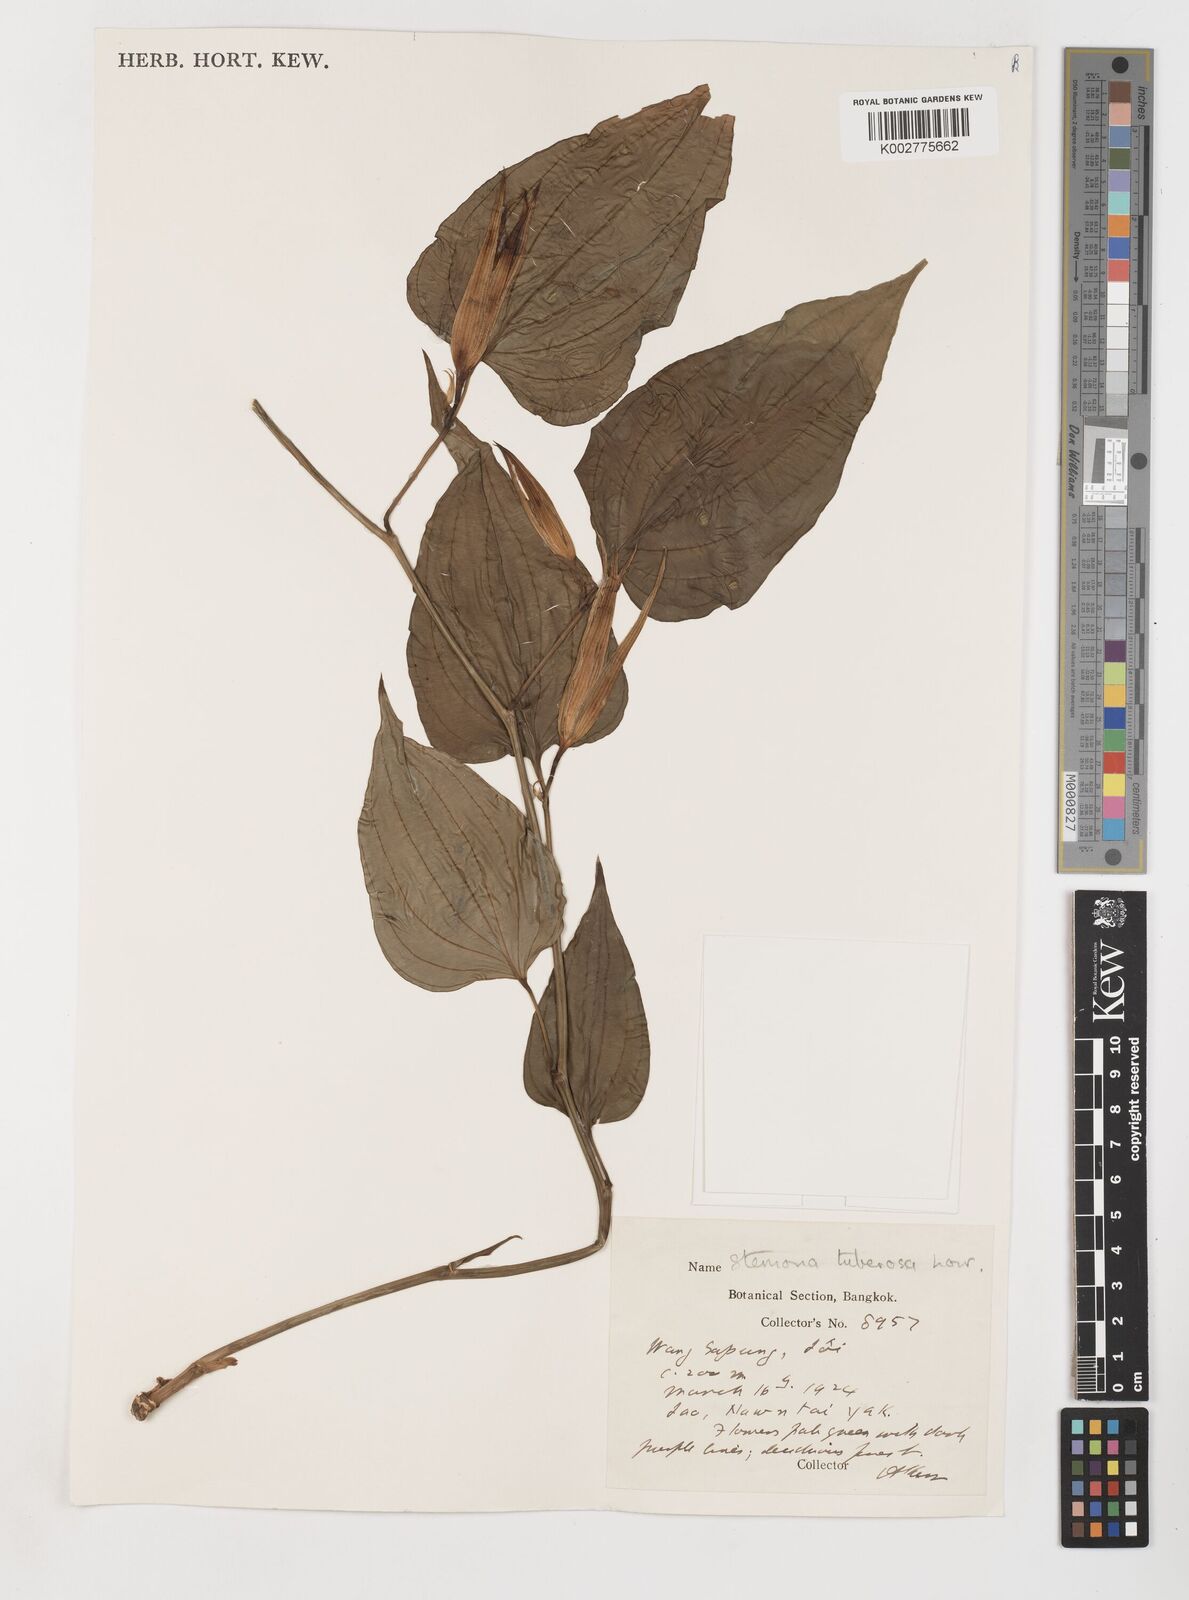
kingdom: Plantae
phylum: Tracheophyta
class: Liliopsida
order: Pandanales
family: Stemonaceae
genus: Stemona
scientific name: Stemona tuberosa
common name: Stemona
